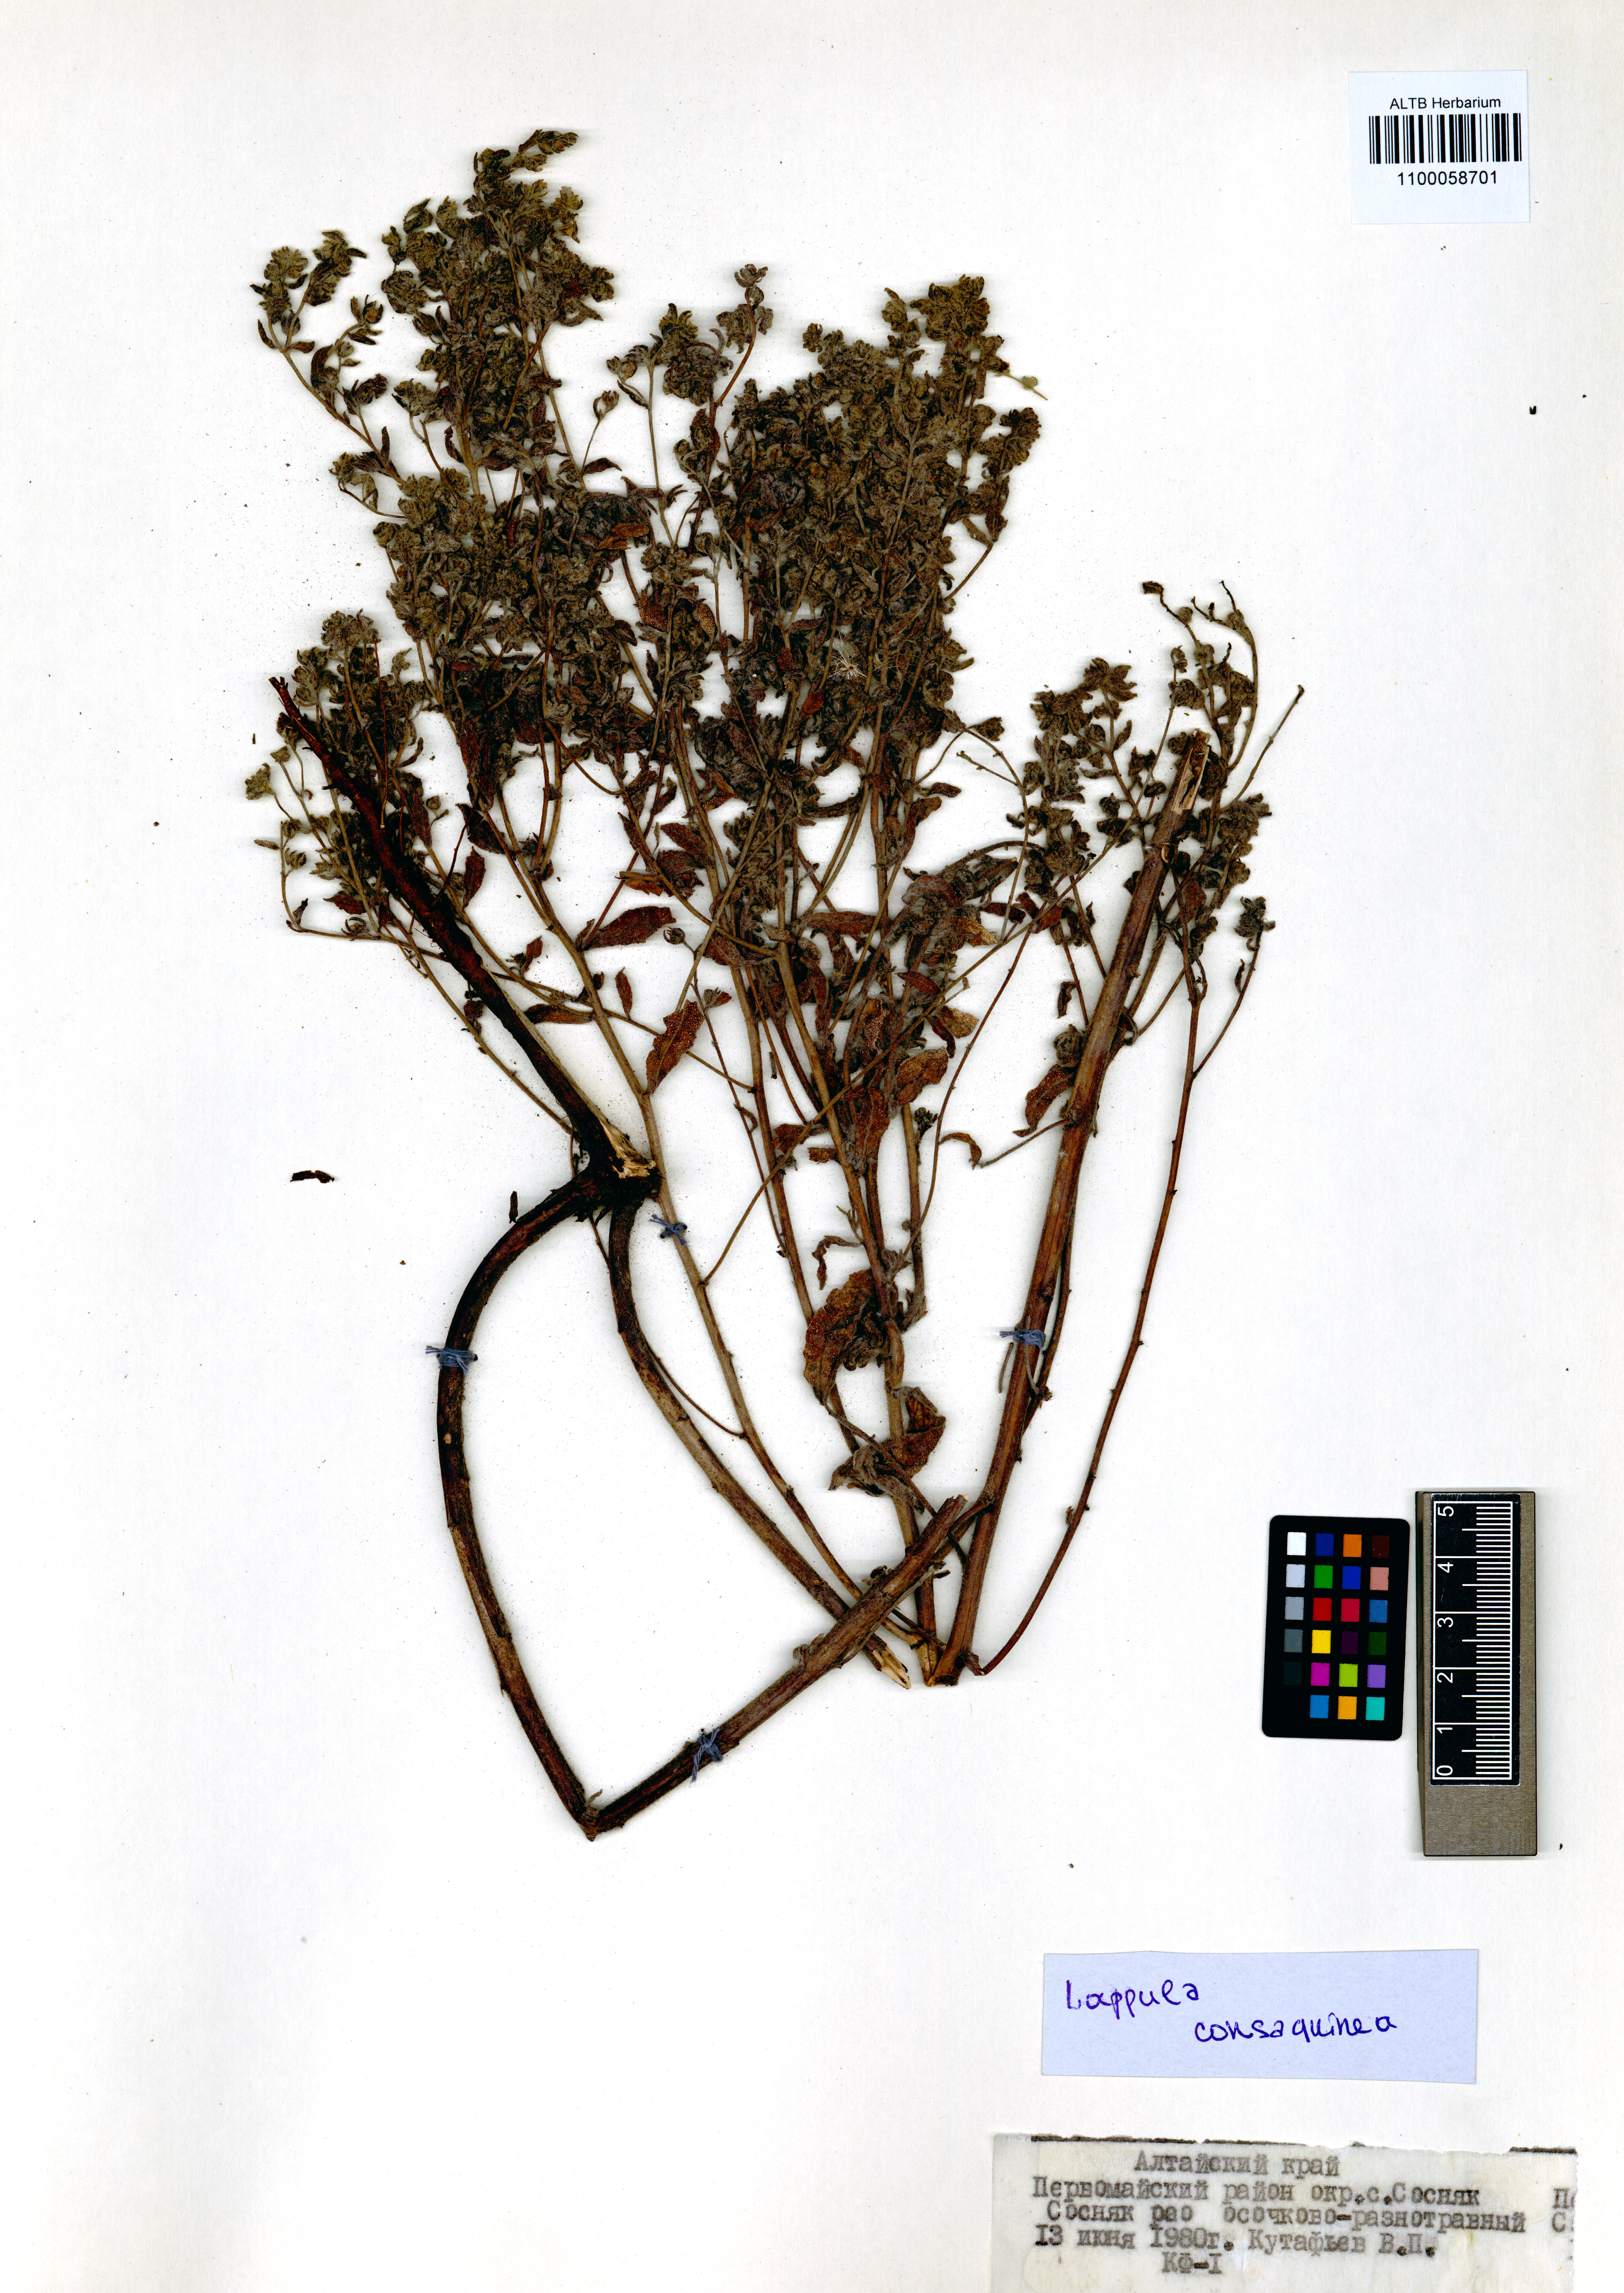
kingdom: Plantae
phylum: Tracheophyta
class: Magnoliopsida
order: Boraginales
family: Boraginaceae
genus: Lappula
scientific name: Lappula squarrosa
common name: European stickseed
